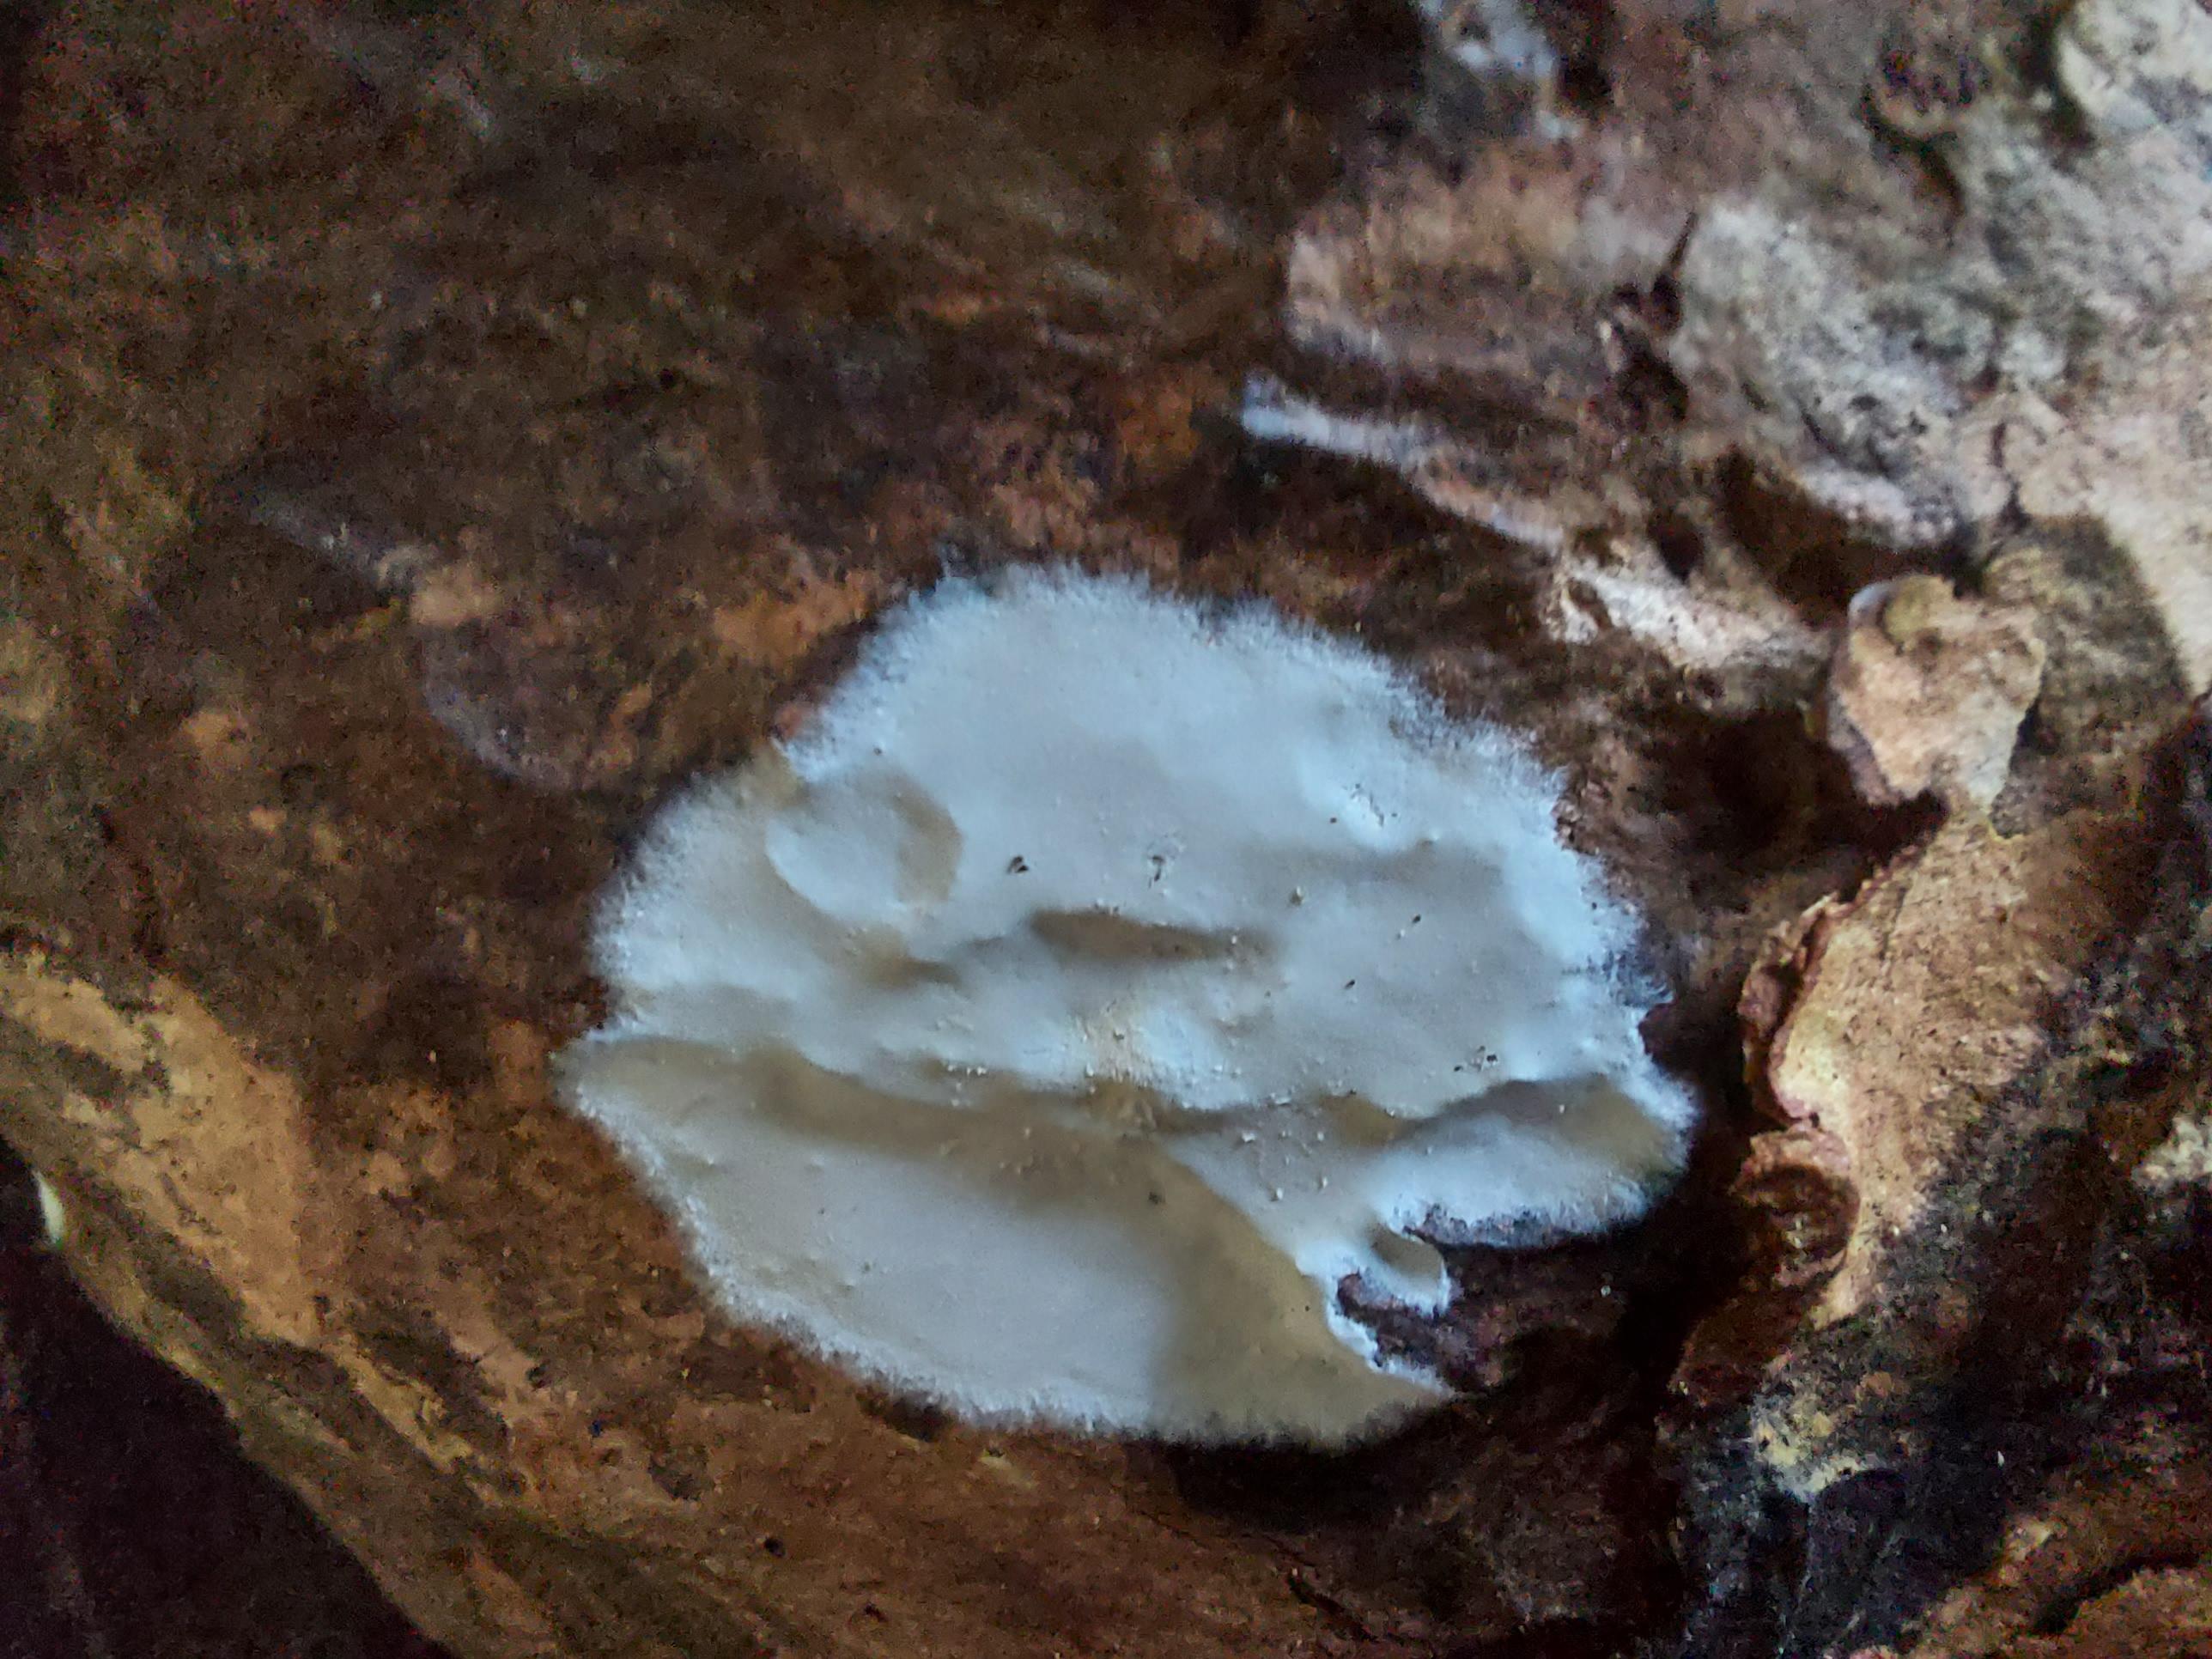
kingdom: Fungi
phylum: Basidiomycota
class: Agaricomycetes
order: Corticiales
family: Corticiaceae
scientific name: Corticiaceae
